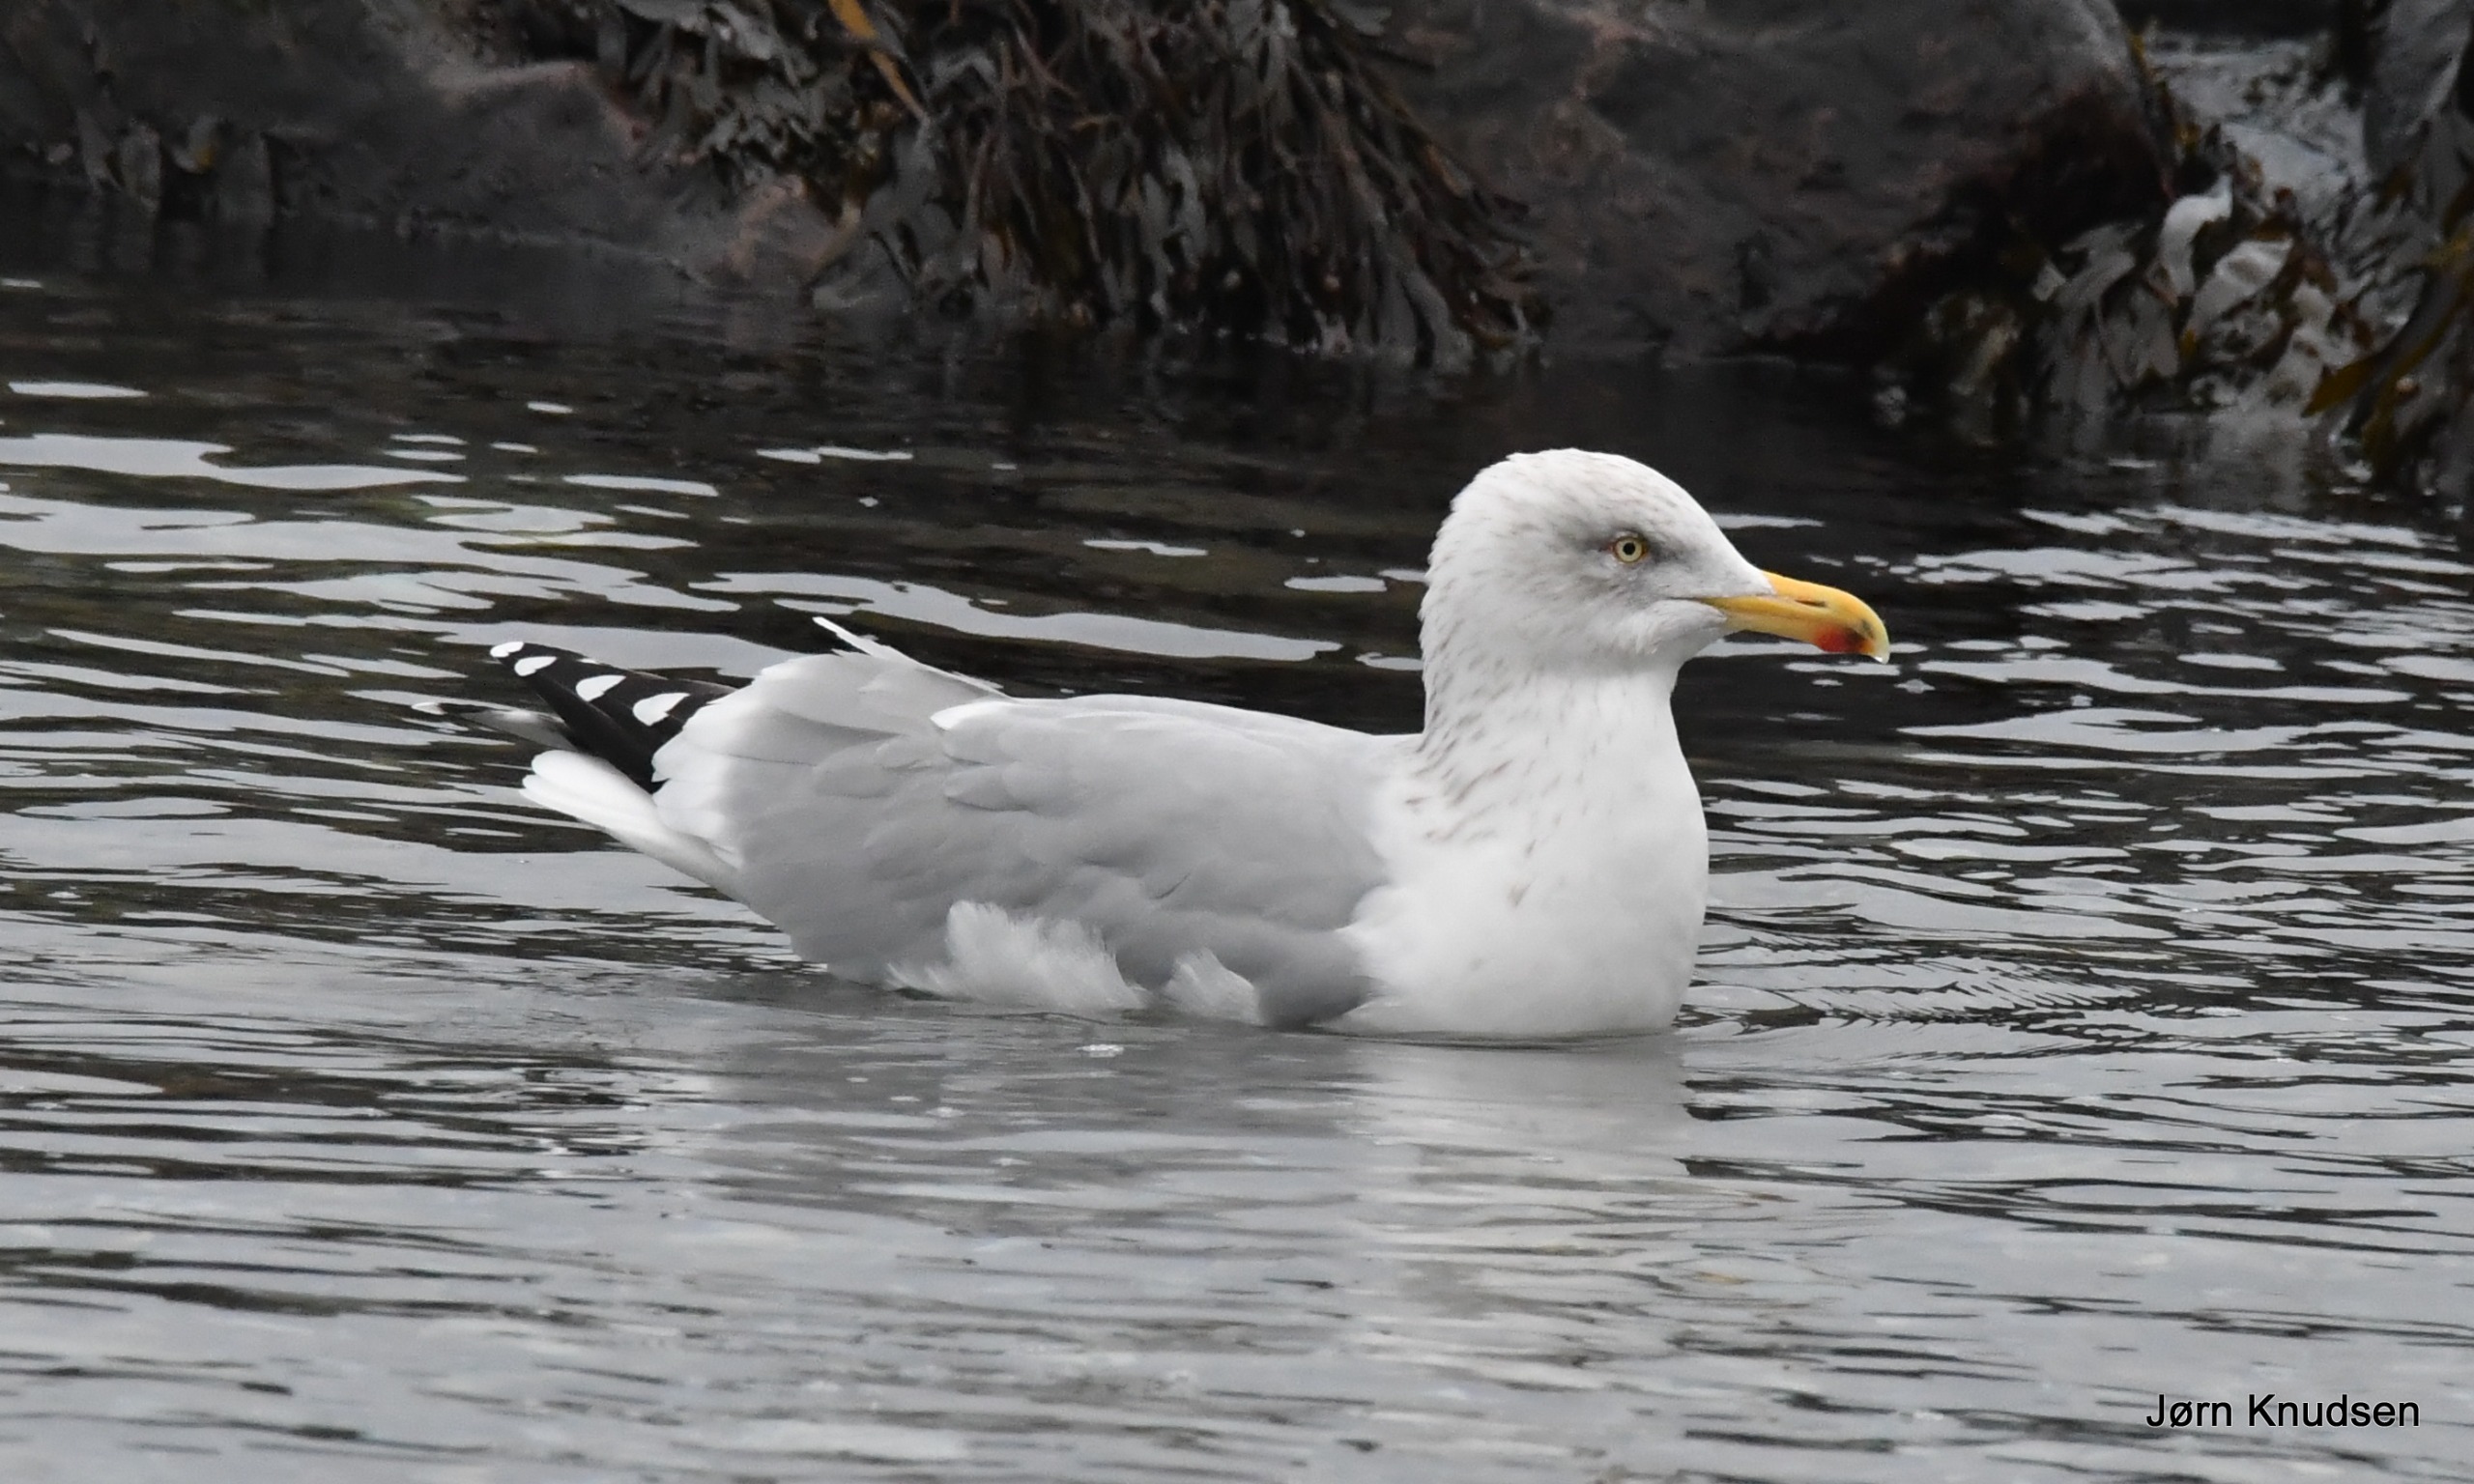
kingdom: Animalia
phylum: Chordata
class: Aves
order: Charadriiformes
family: Laridae
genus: Larus
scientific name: Larus argentatus
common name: Sølvmåge
